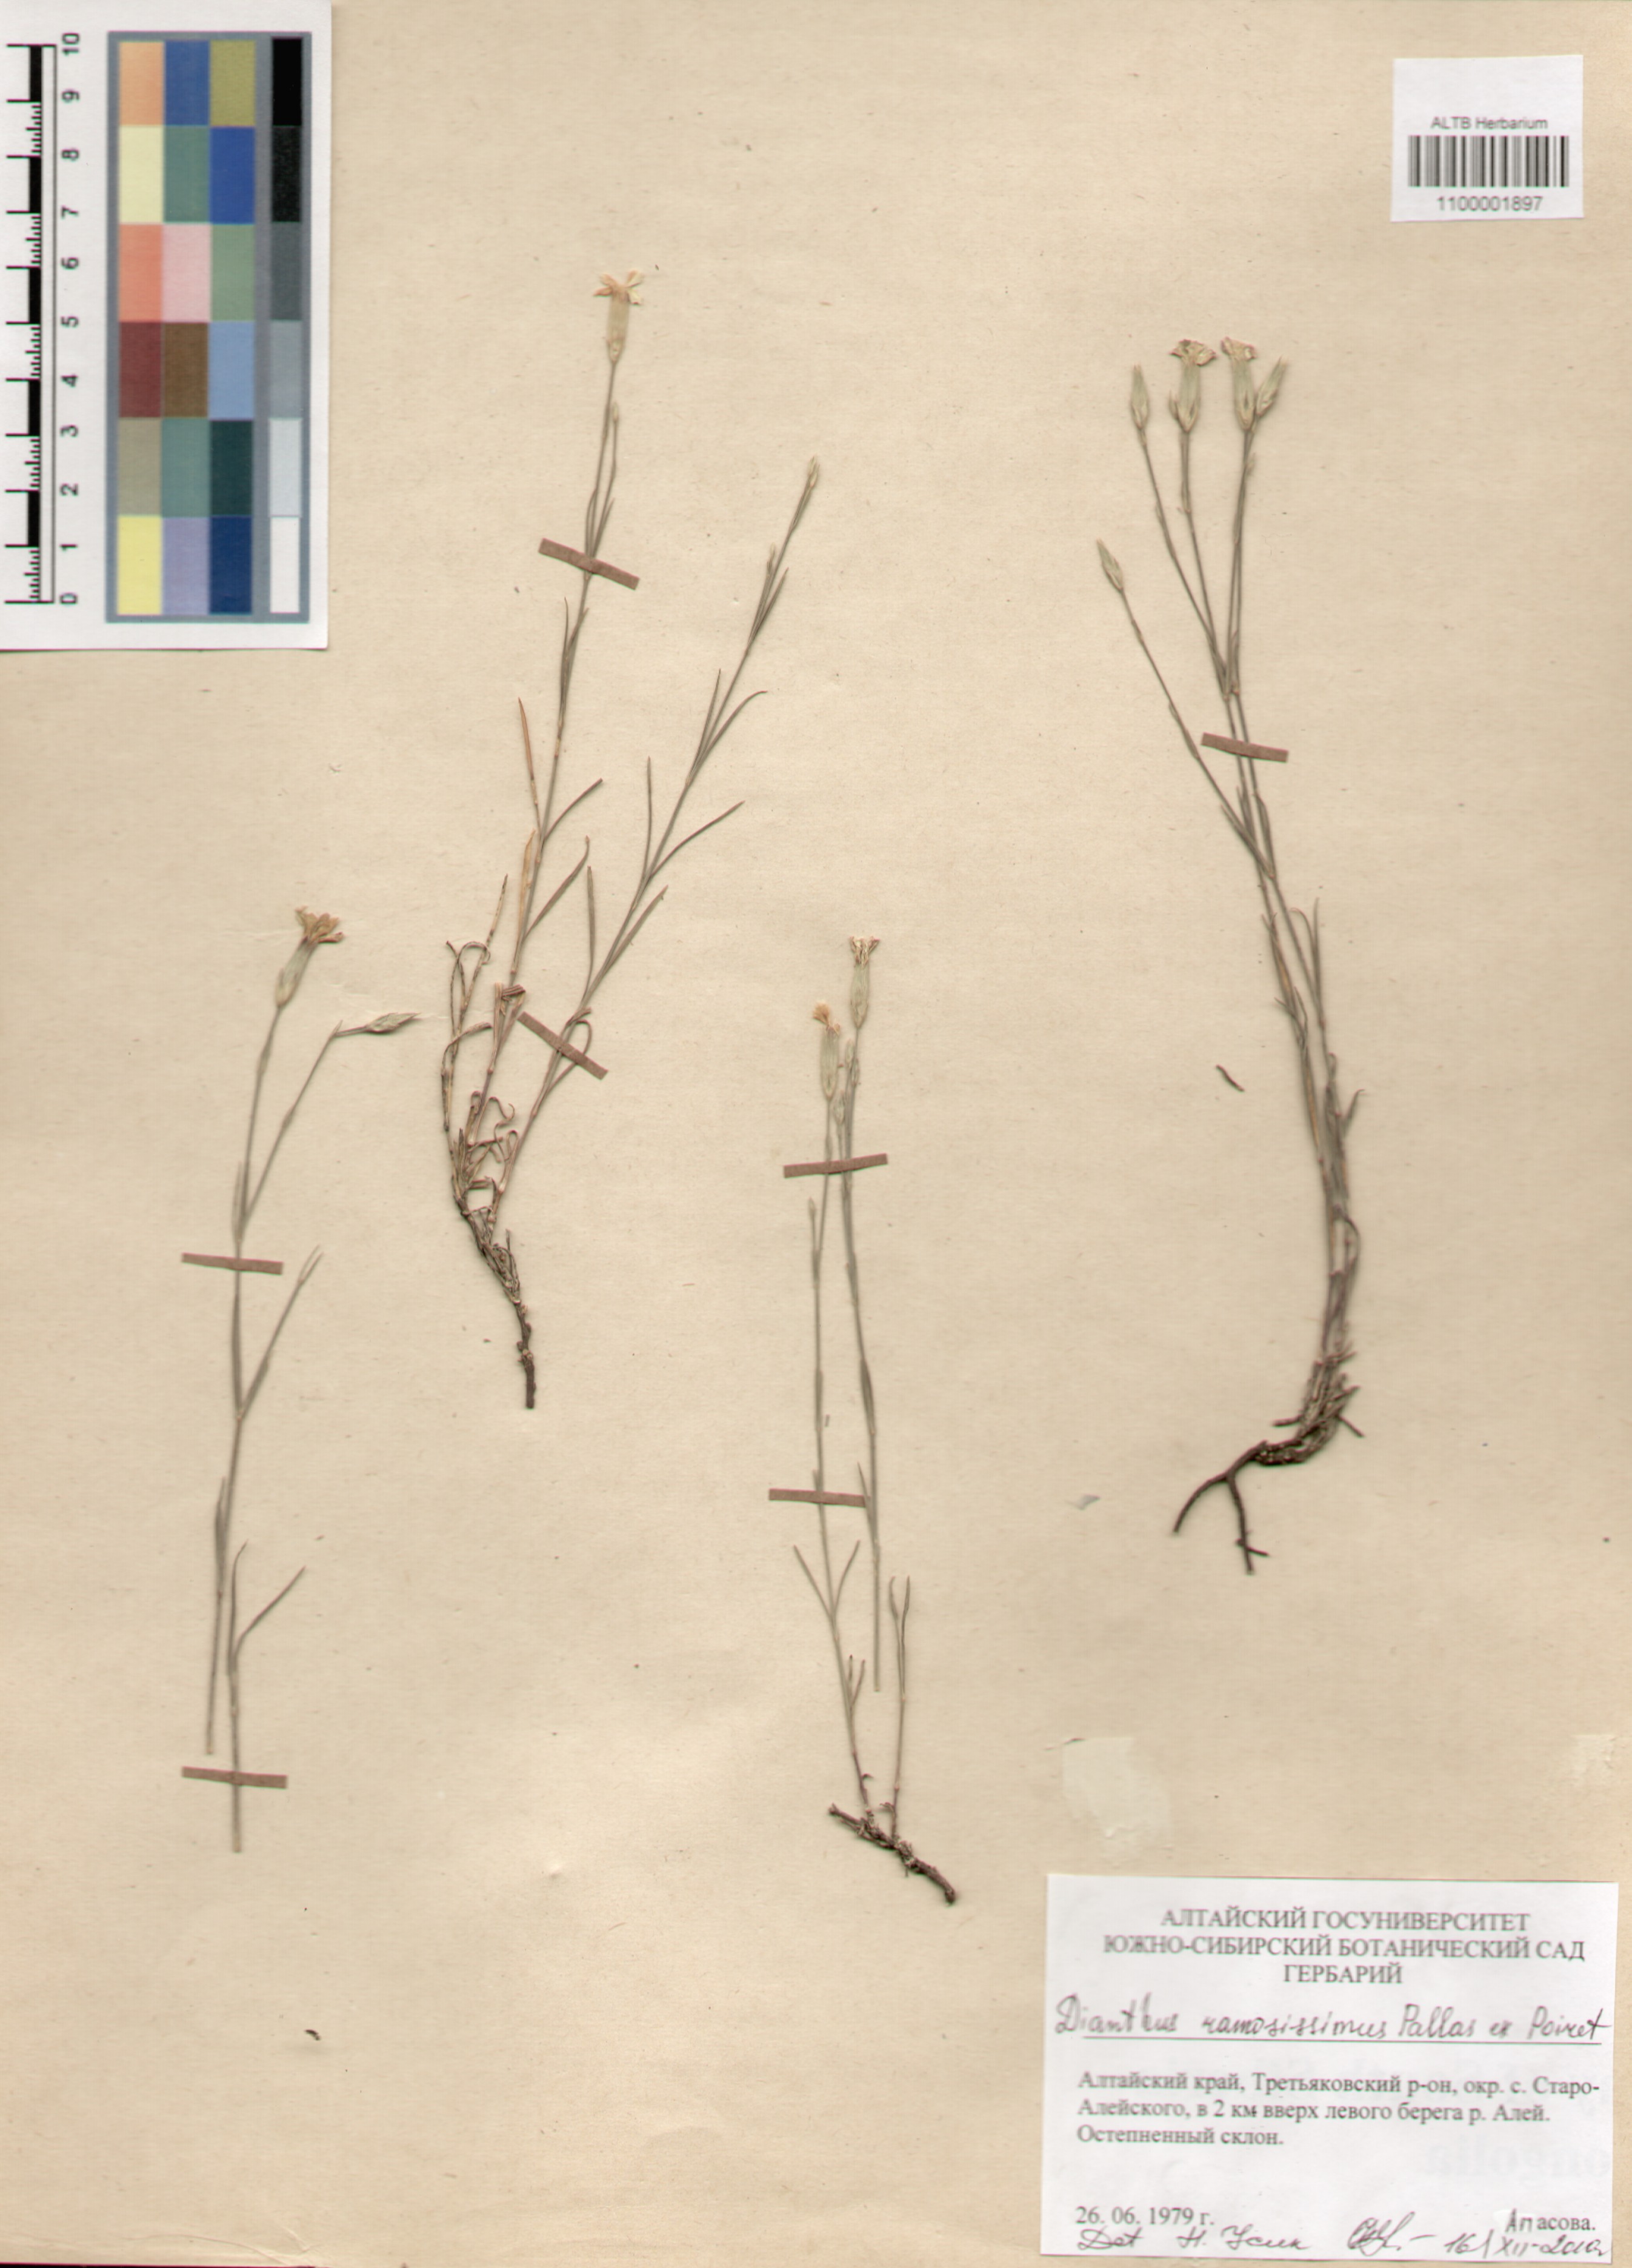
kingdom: Plantae
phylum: Tracheophyta
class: Magnoliopsida
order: Caryophyllales
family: Caryophyllaceae
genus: Dianthus
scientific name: Dianthus ramosissimus
